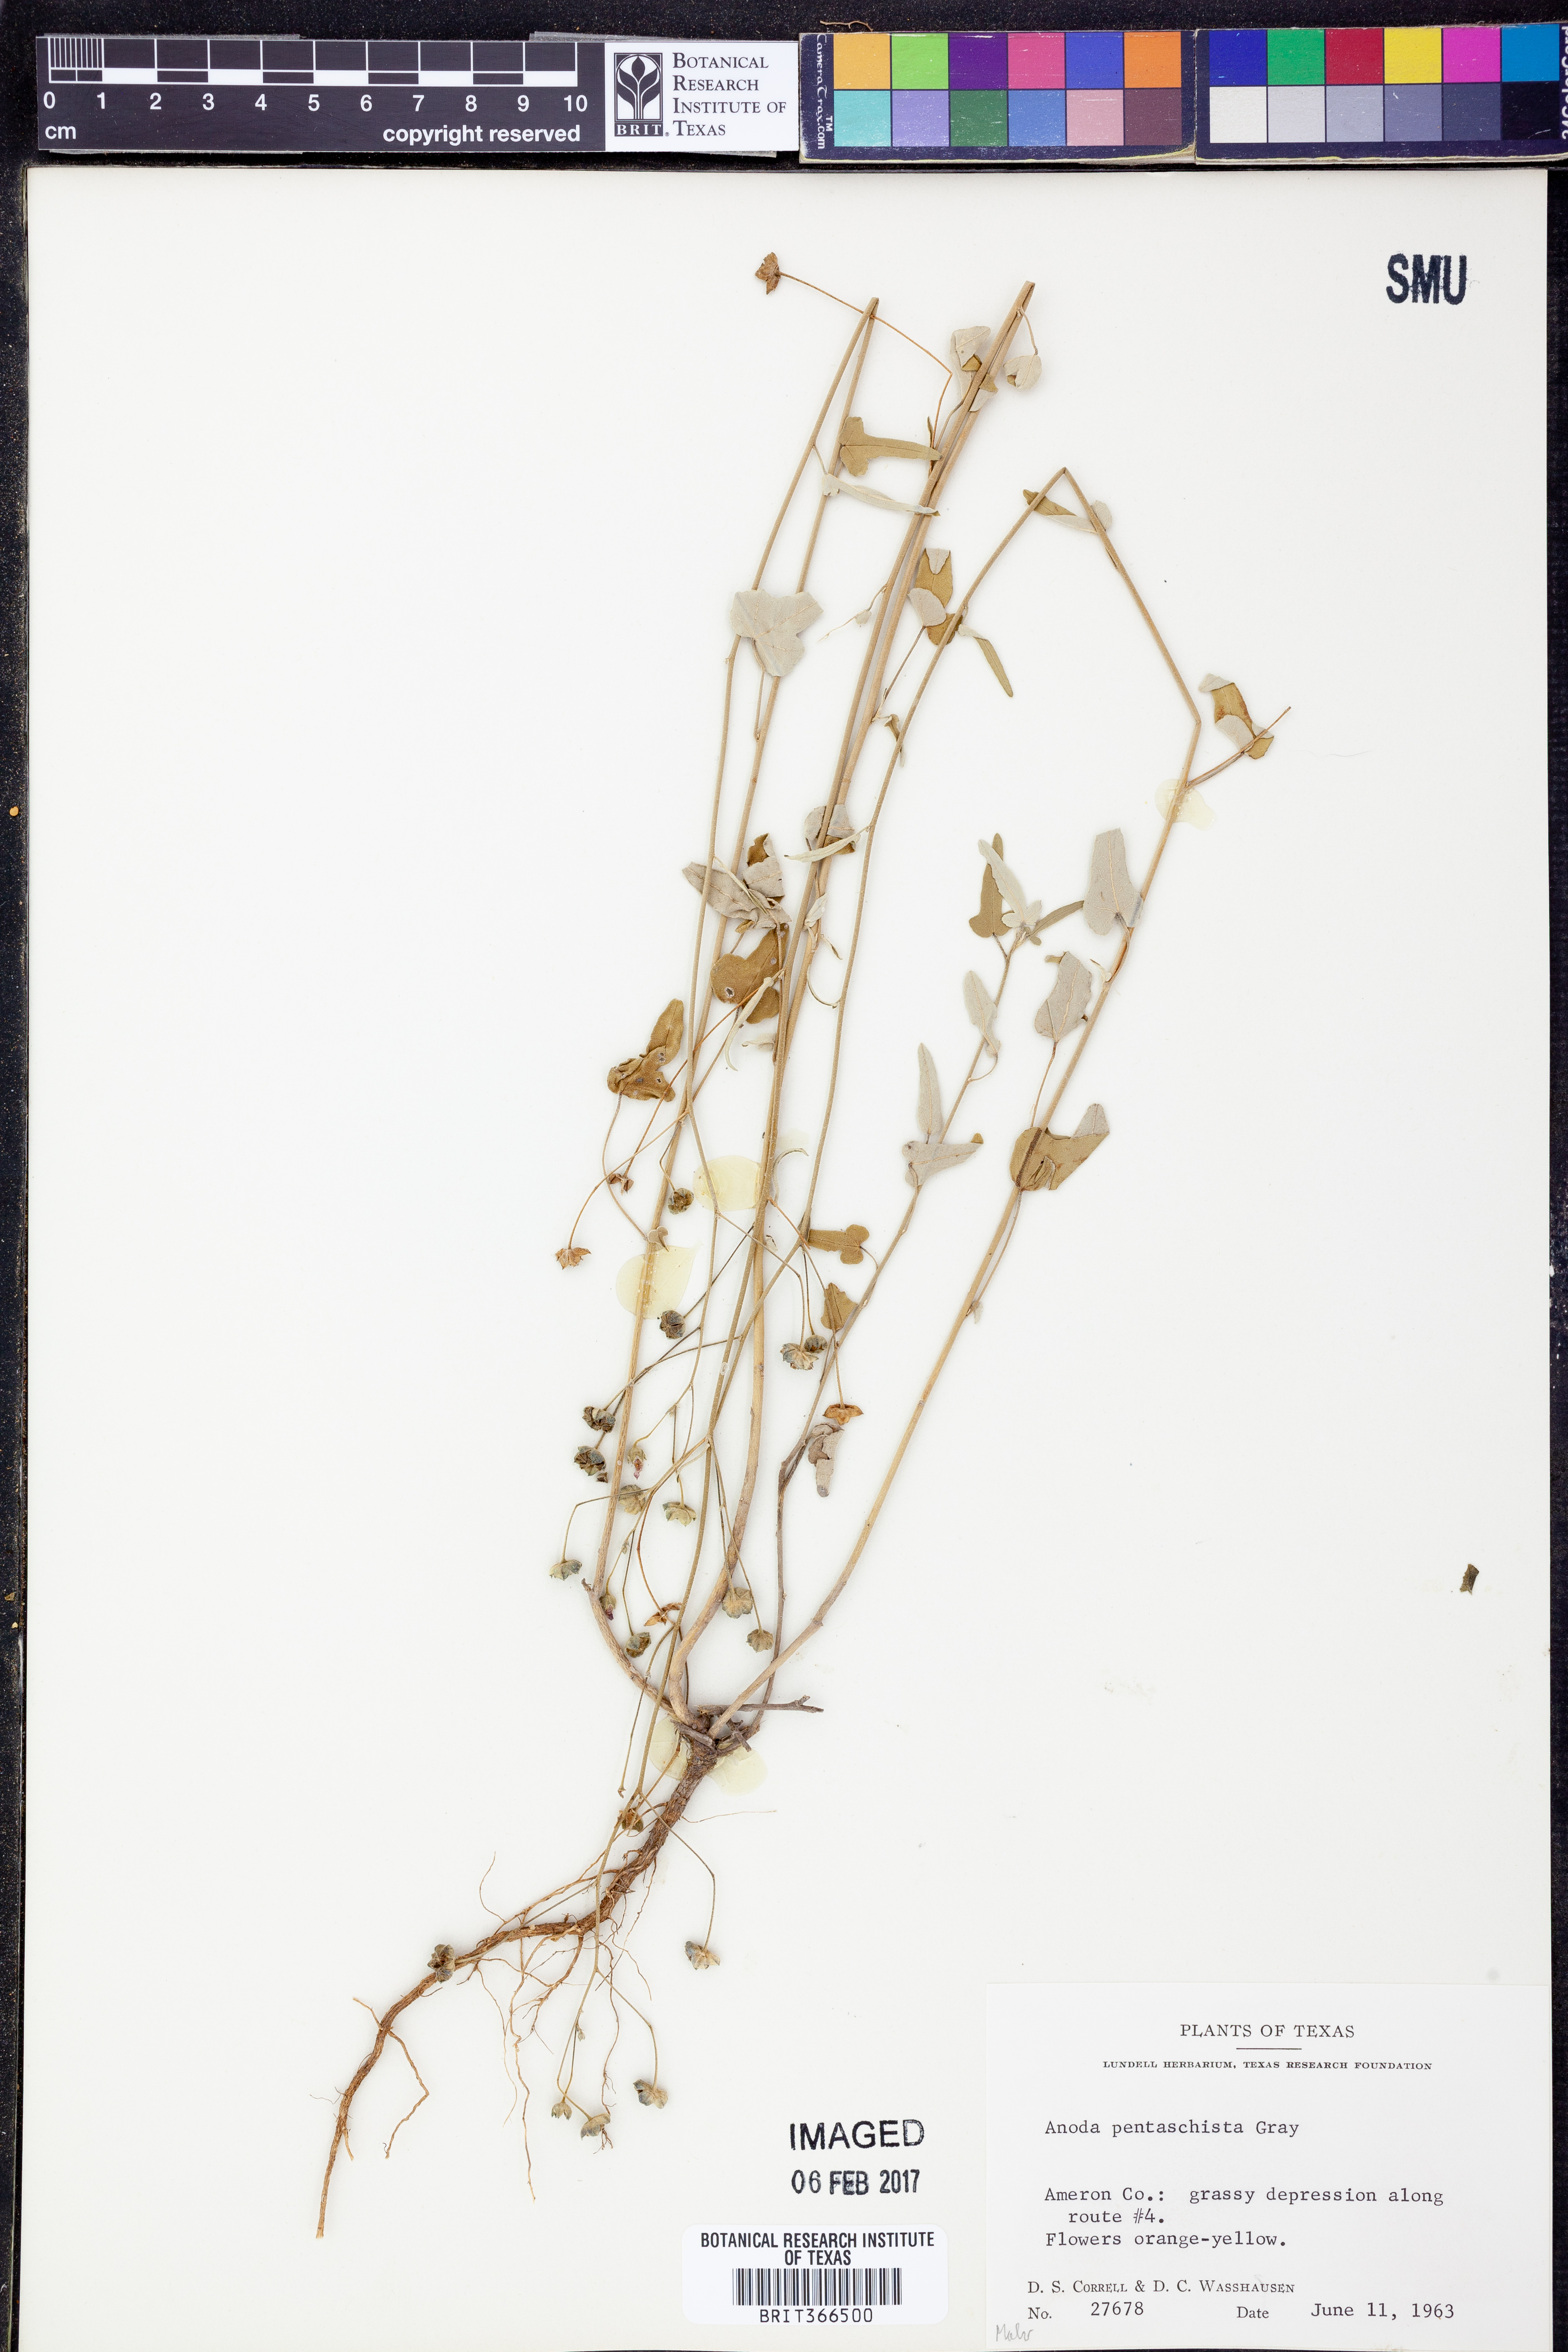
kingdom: Plantae
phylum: Tracheophyta
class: Magnoliopsida
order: Malvales
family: Malvaceae
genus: Anoda
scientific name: Anoda pentaschista
